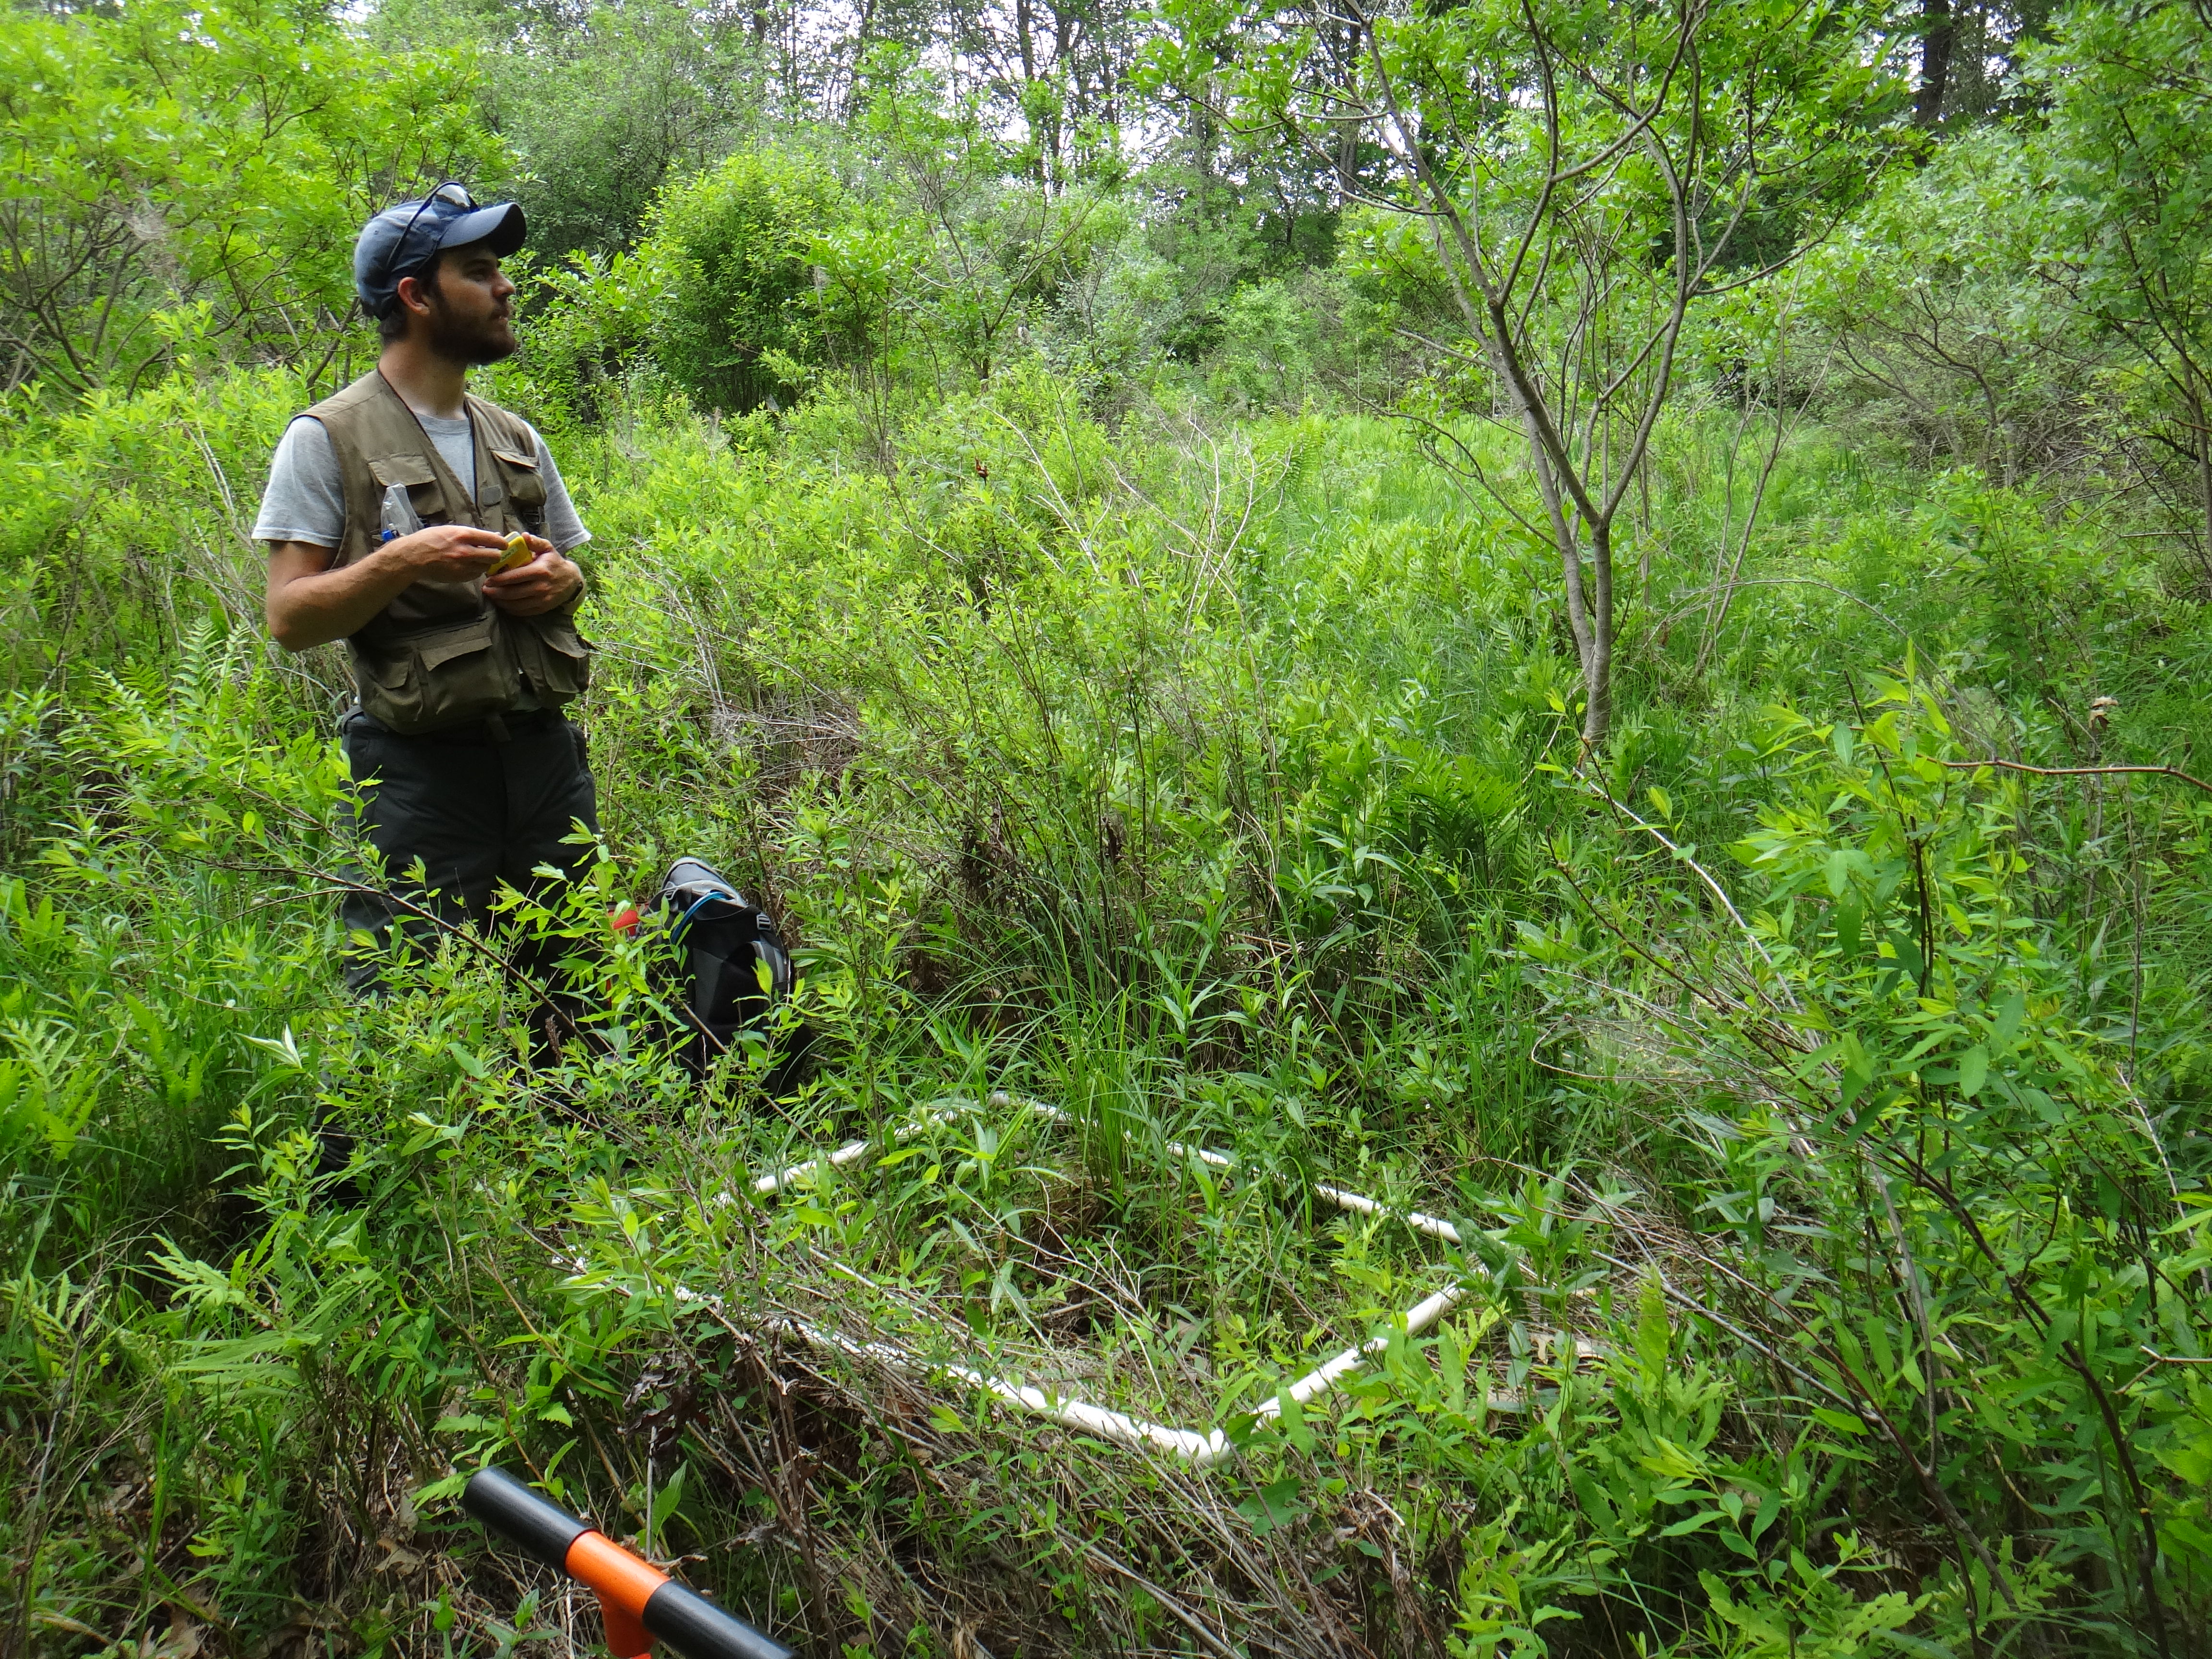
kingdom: Plantae
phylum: Tracheophyta
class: Magnoliopsida
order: Caryophyllales
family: Polygonaceae
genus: Rumex
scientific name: Rumex orbiculatus
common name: Greater water dock
